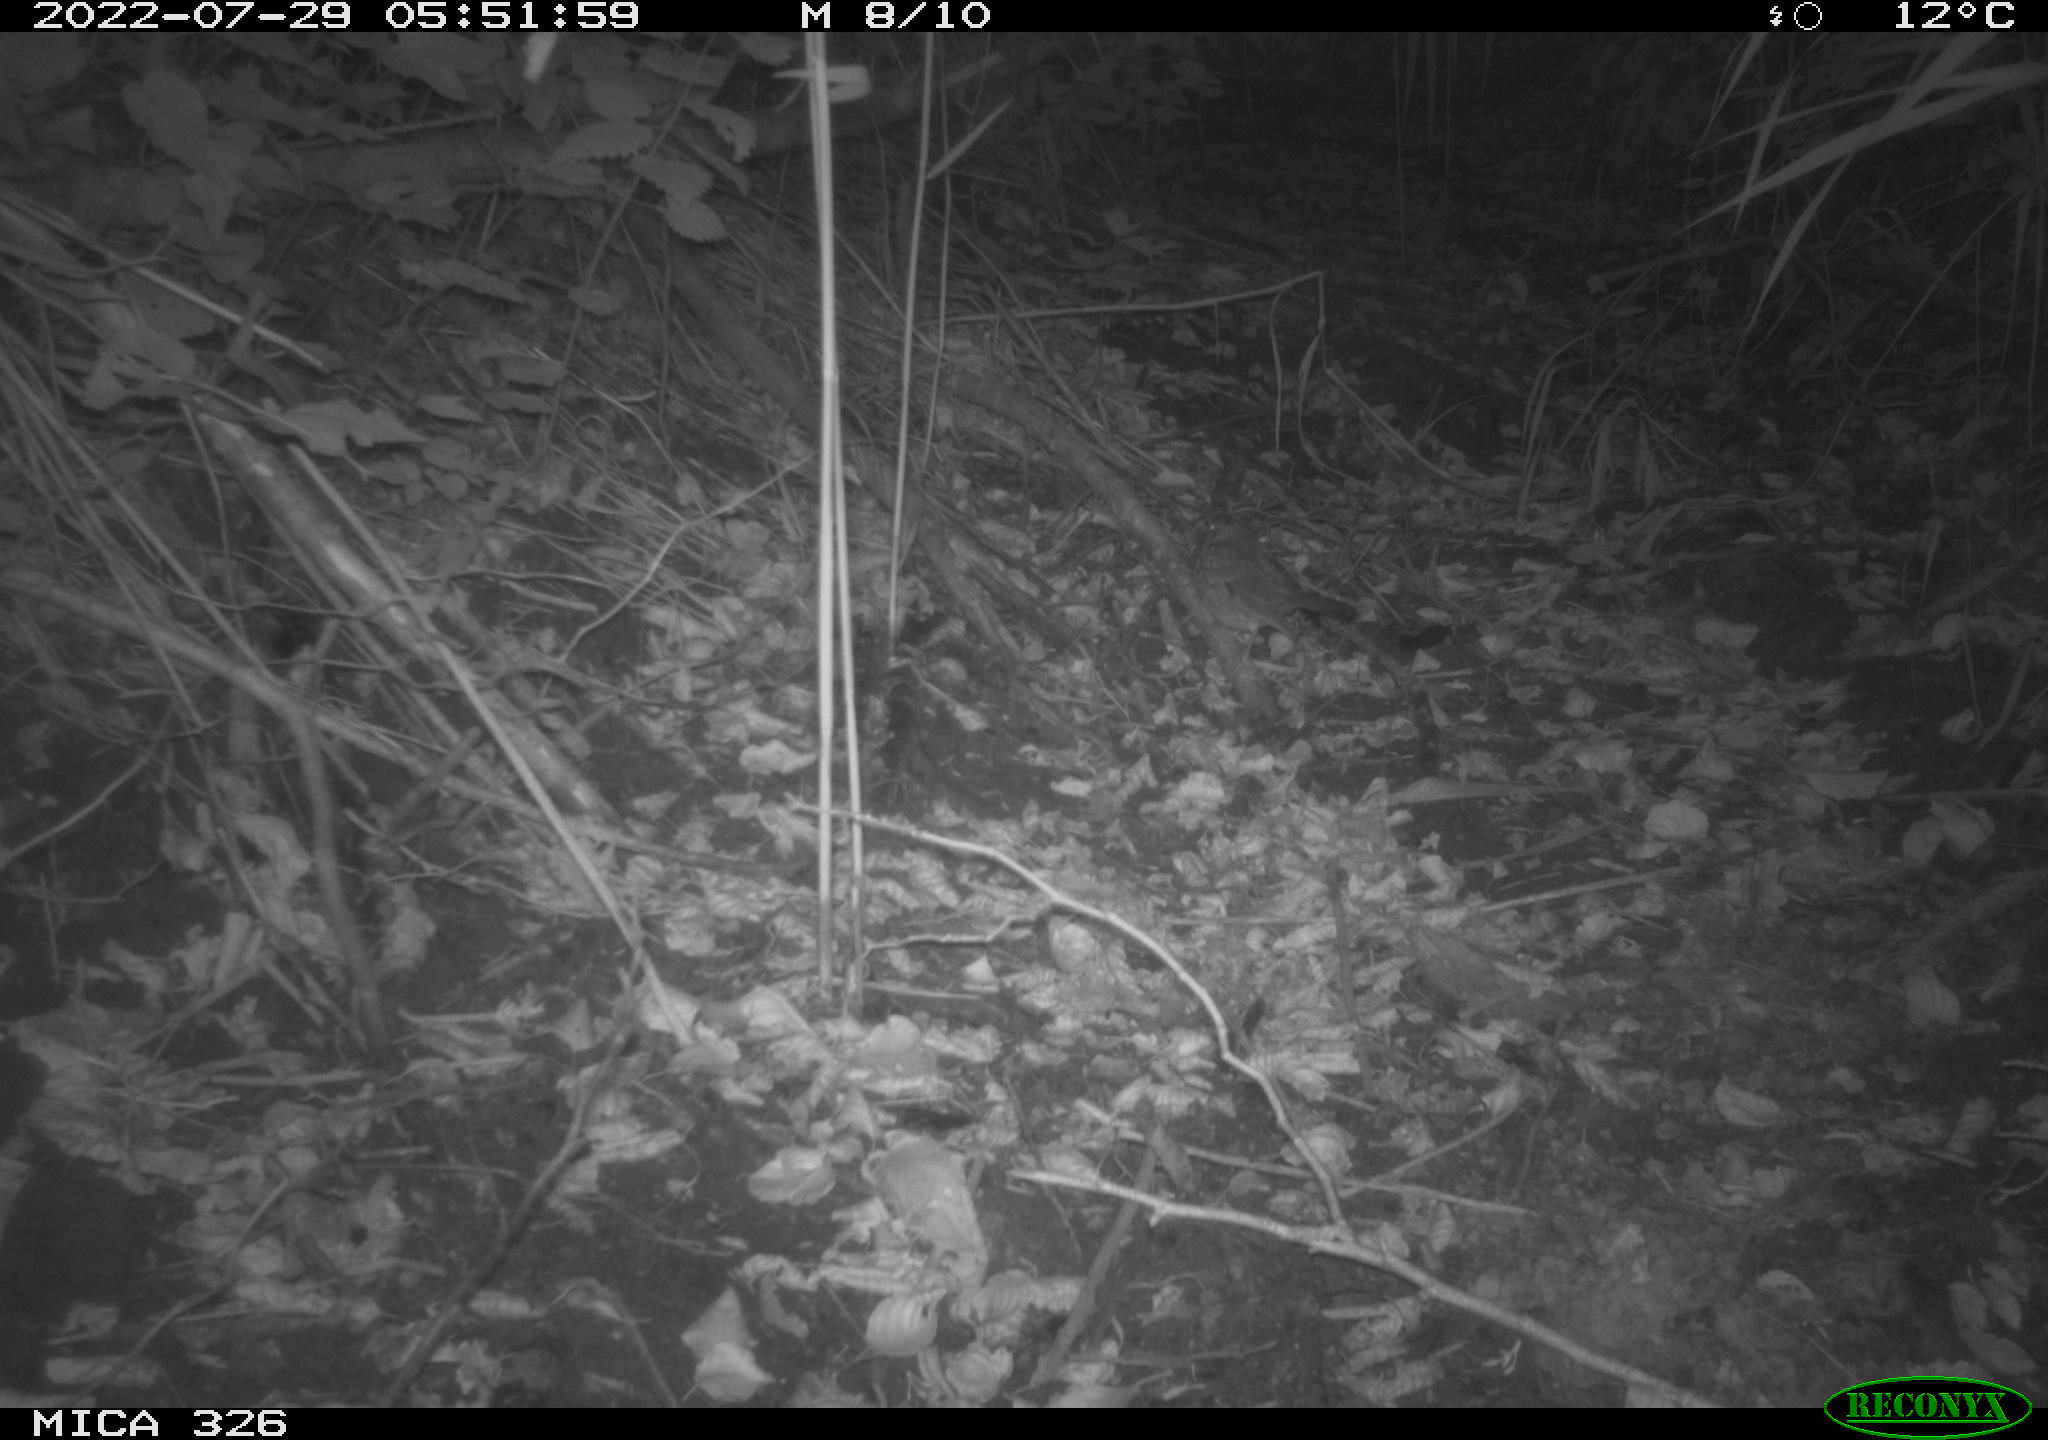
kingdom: Animalia
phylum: Chordata
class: Aves
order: Passeriformes
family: Turdidae
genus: Turdus
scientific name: Turdus
